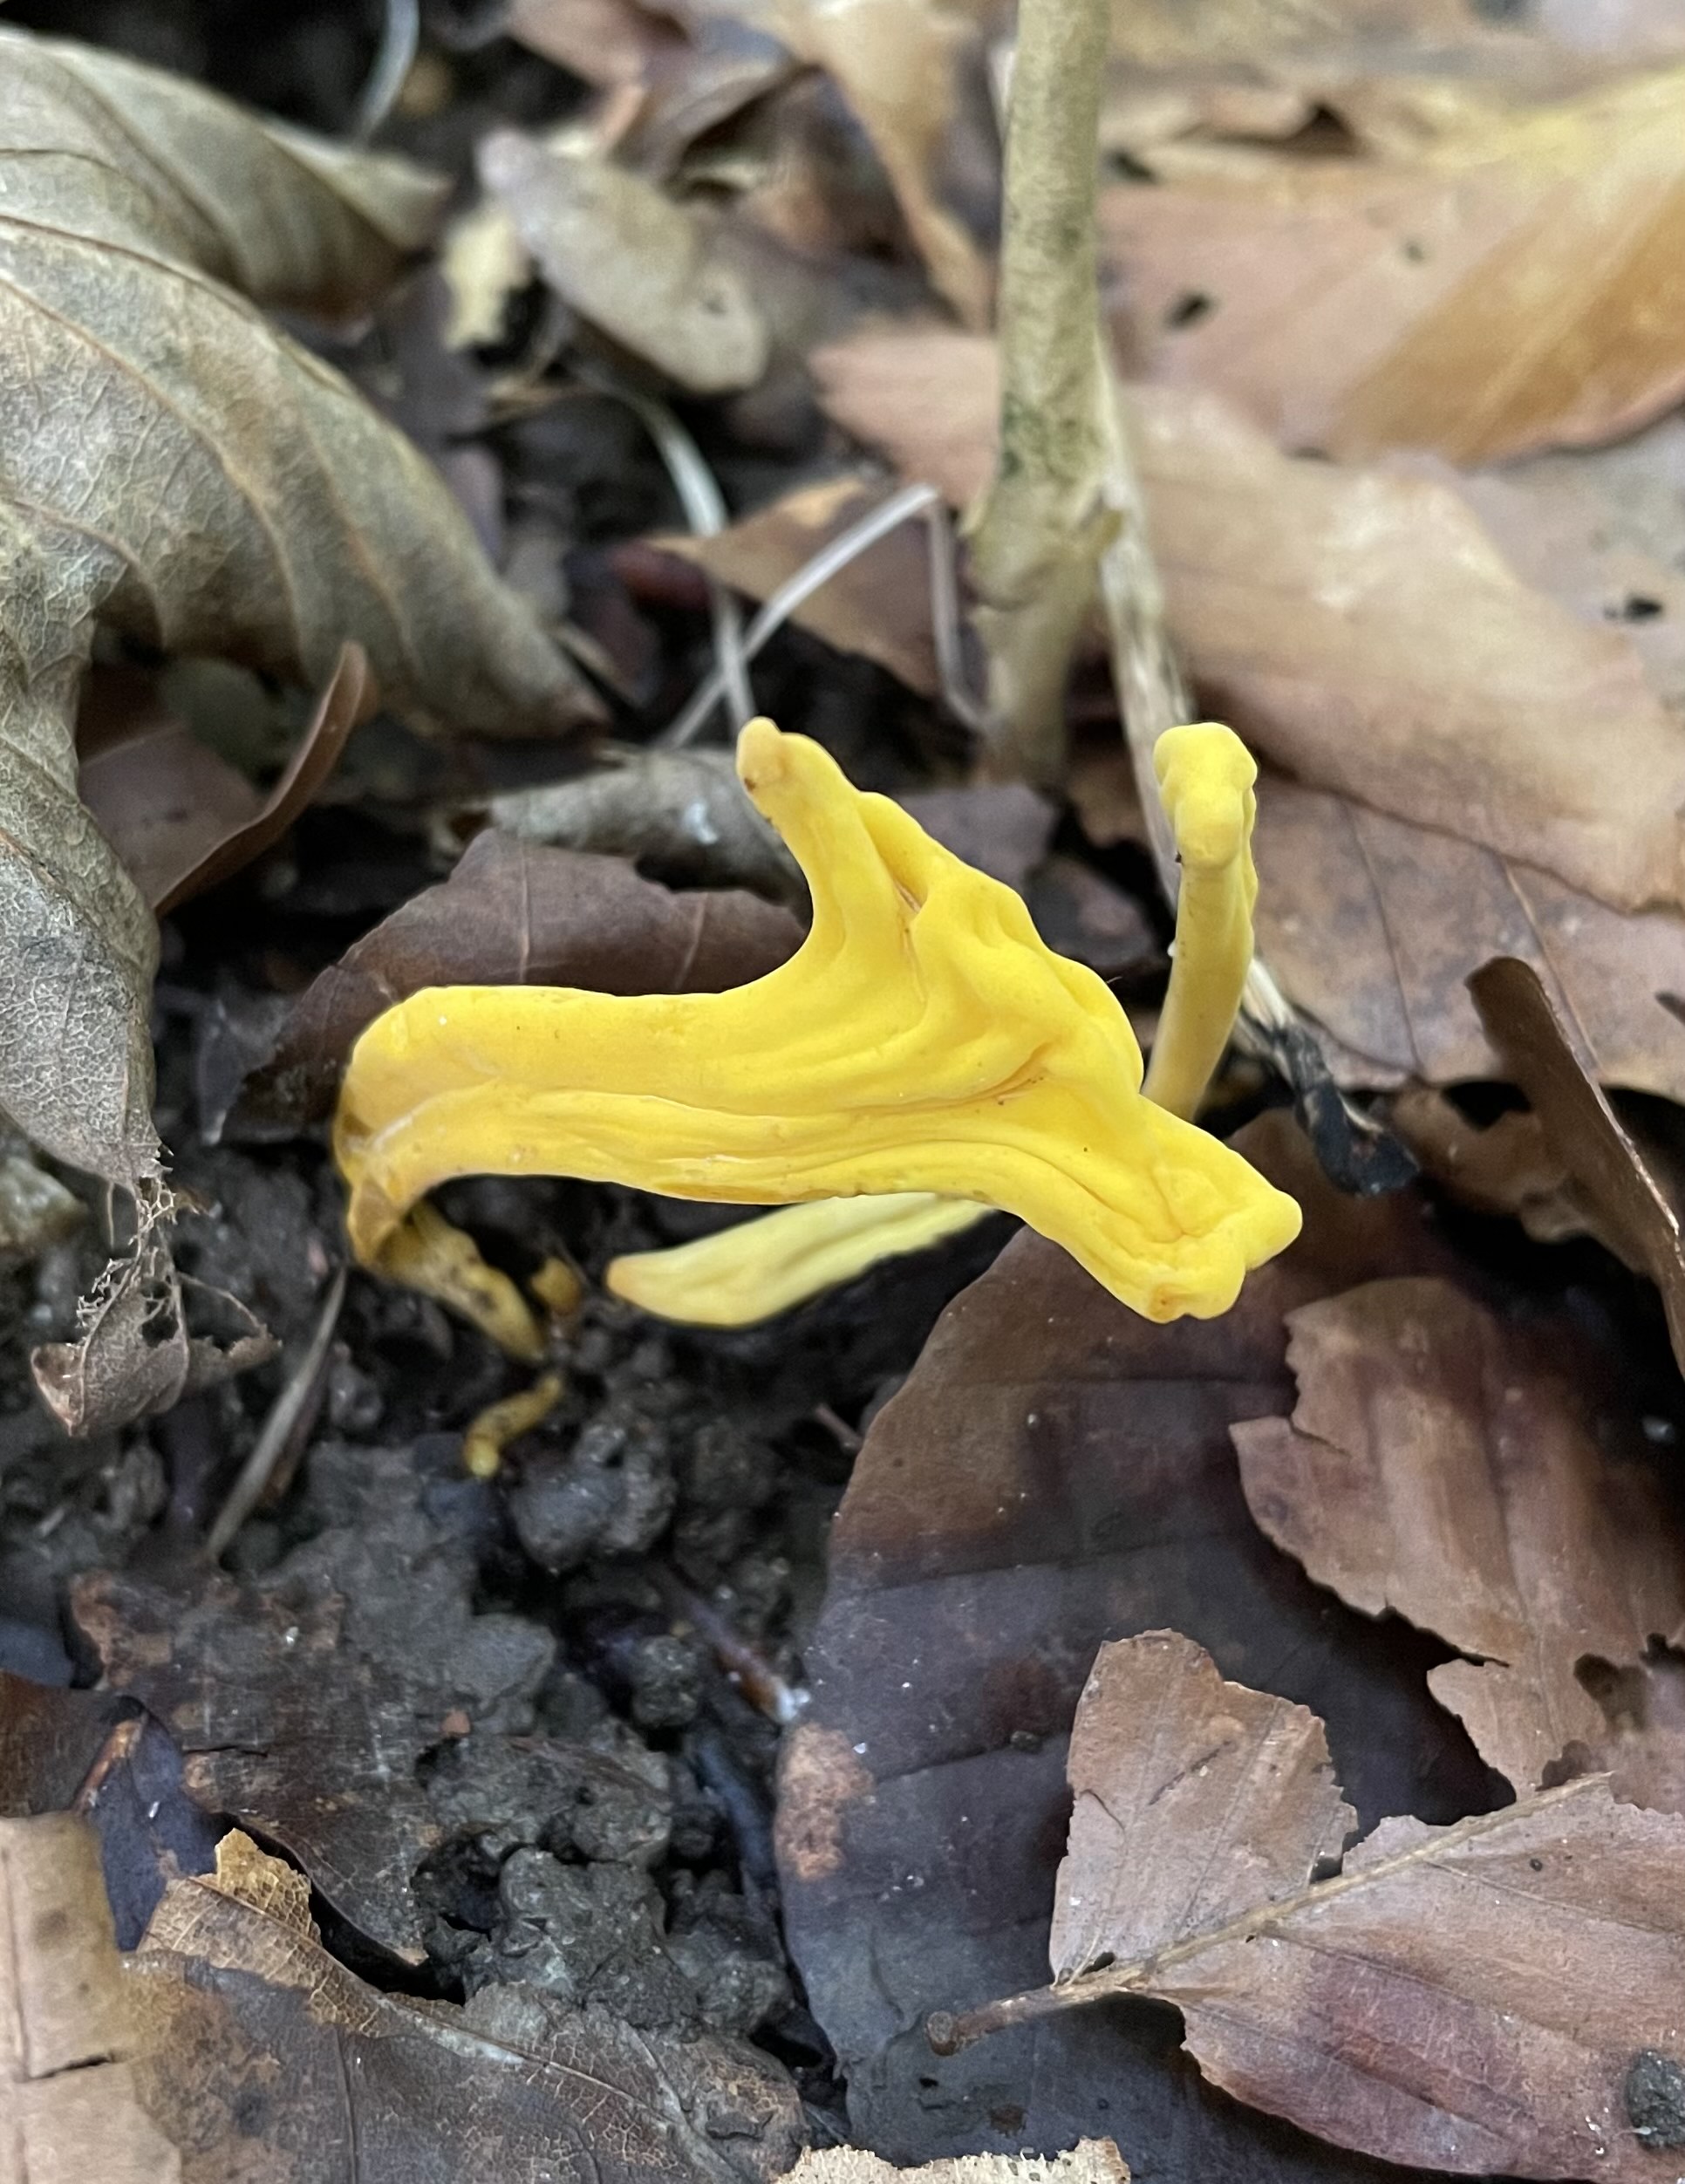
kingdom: Fungi
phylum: Basidiomycota
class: Agaricomycetes
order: Agaricales
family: Clavariaceae
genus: Clavulinopsis
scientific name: Clavulinopsis
